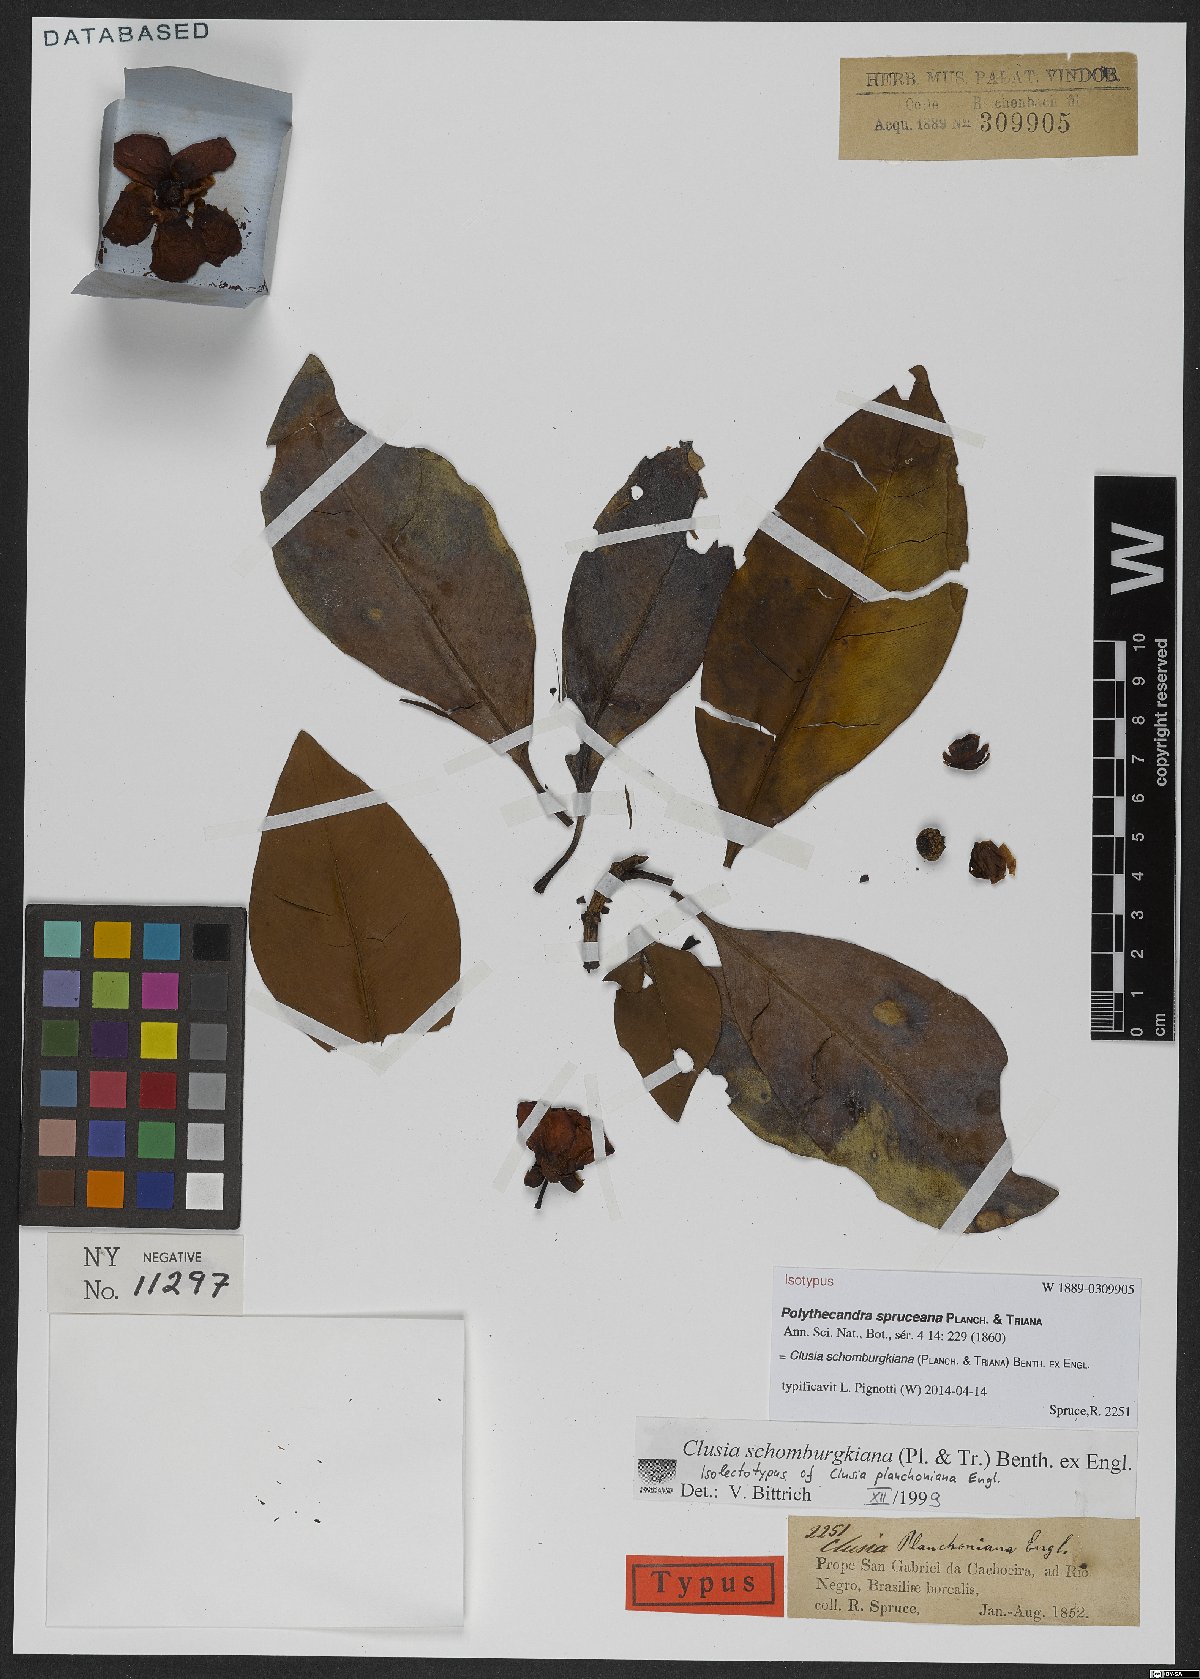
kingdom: Plantae
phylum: Tracheophyta
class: Magnoliopsida
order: Malpighiales
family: Clusiaceae
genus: Clusia
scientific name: Clusia schomburgkiana
